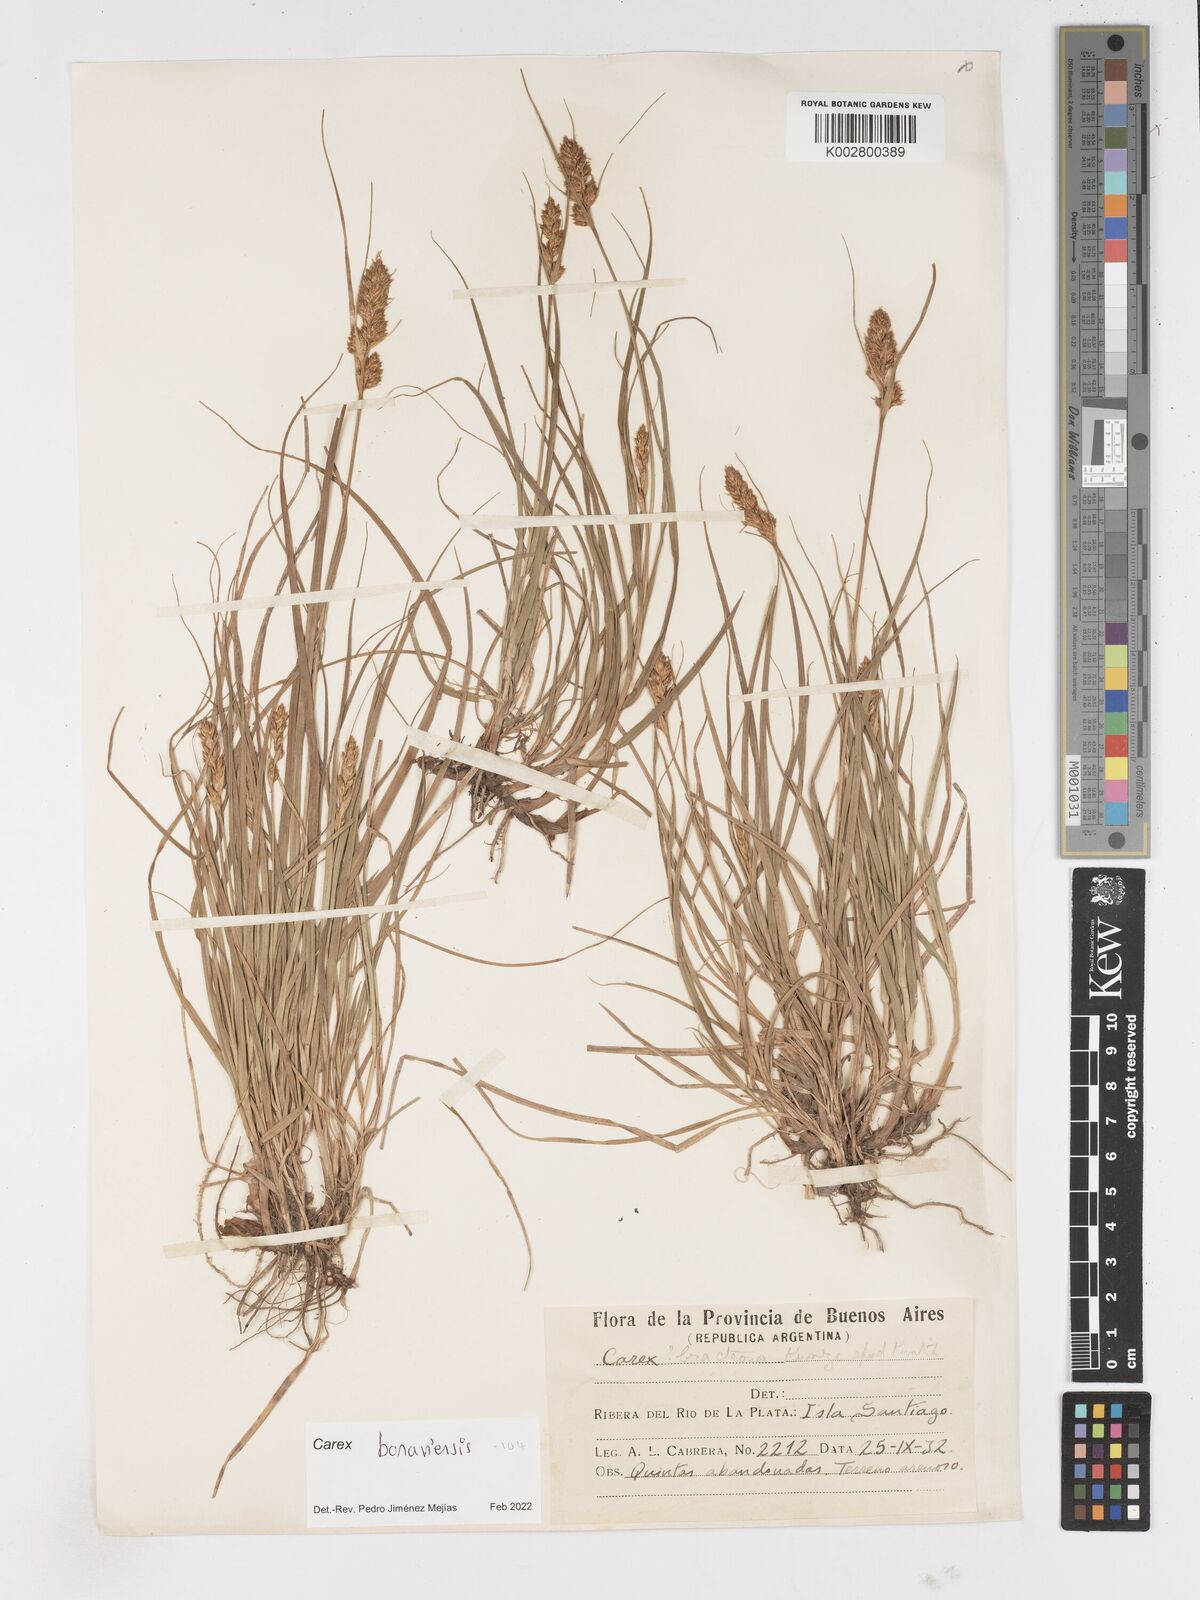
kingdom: Plantae
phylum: Tracheophyta
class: Liliopsida
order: Poales
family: Cyperaceae
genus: Carex
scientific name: Carex fissa
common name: Hammock sedge
